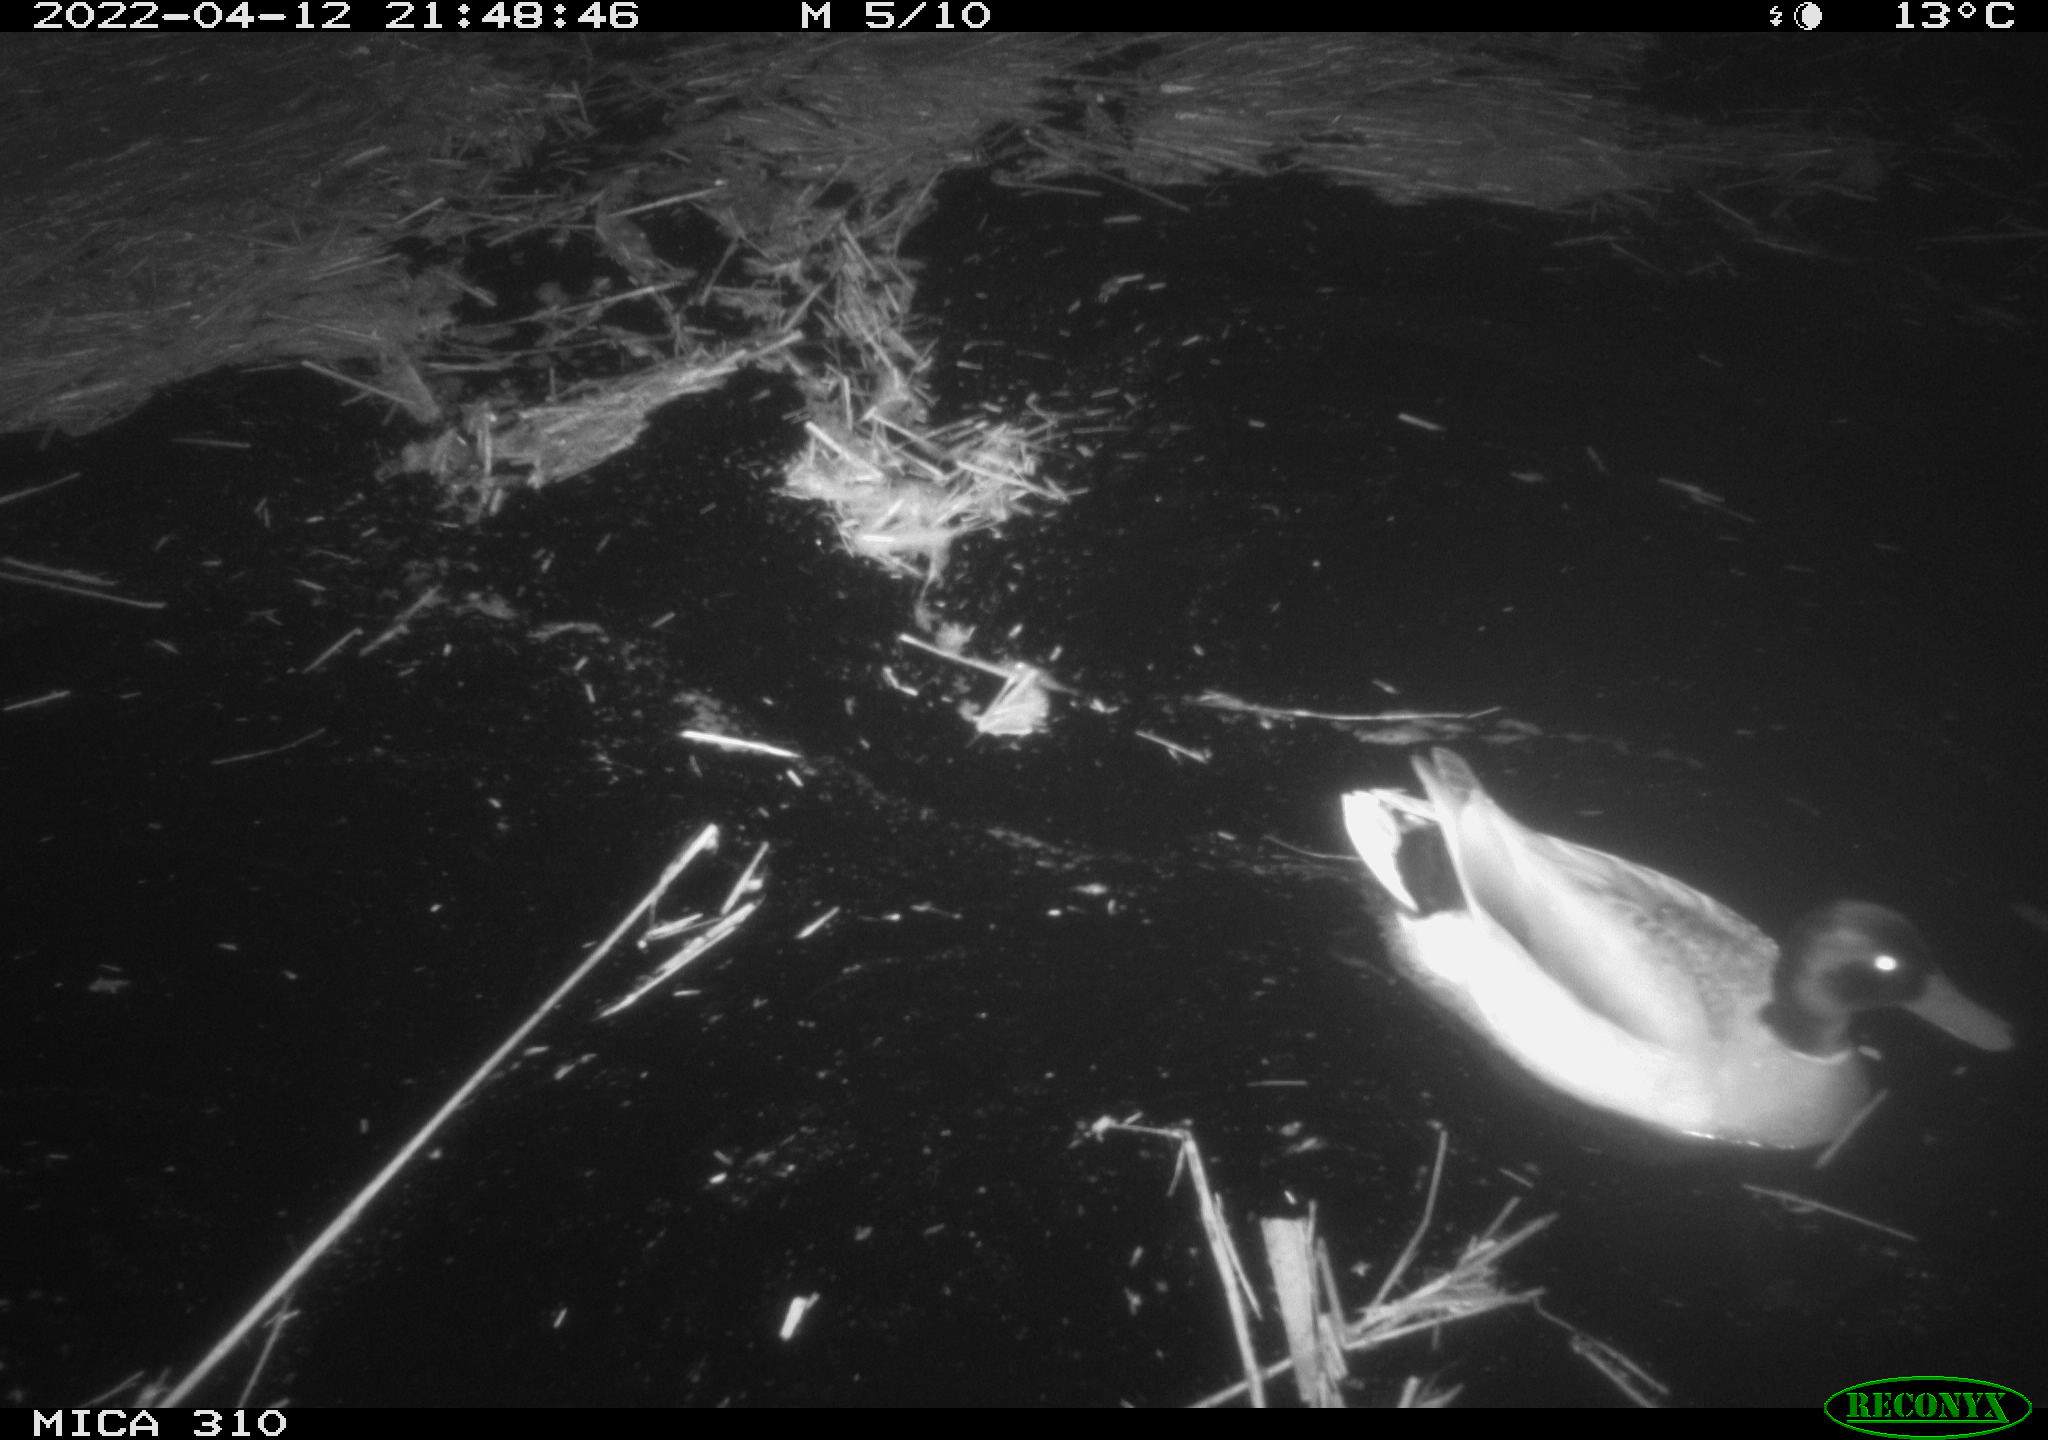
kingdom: Animalia
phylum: Chordata
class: Aves
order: Anseriformes
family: Anatidae
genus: Mareca
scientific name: Mareca strepera
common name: Gadwall
